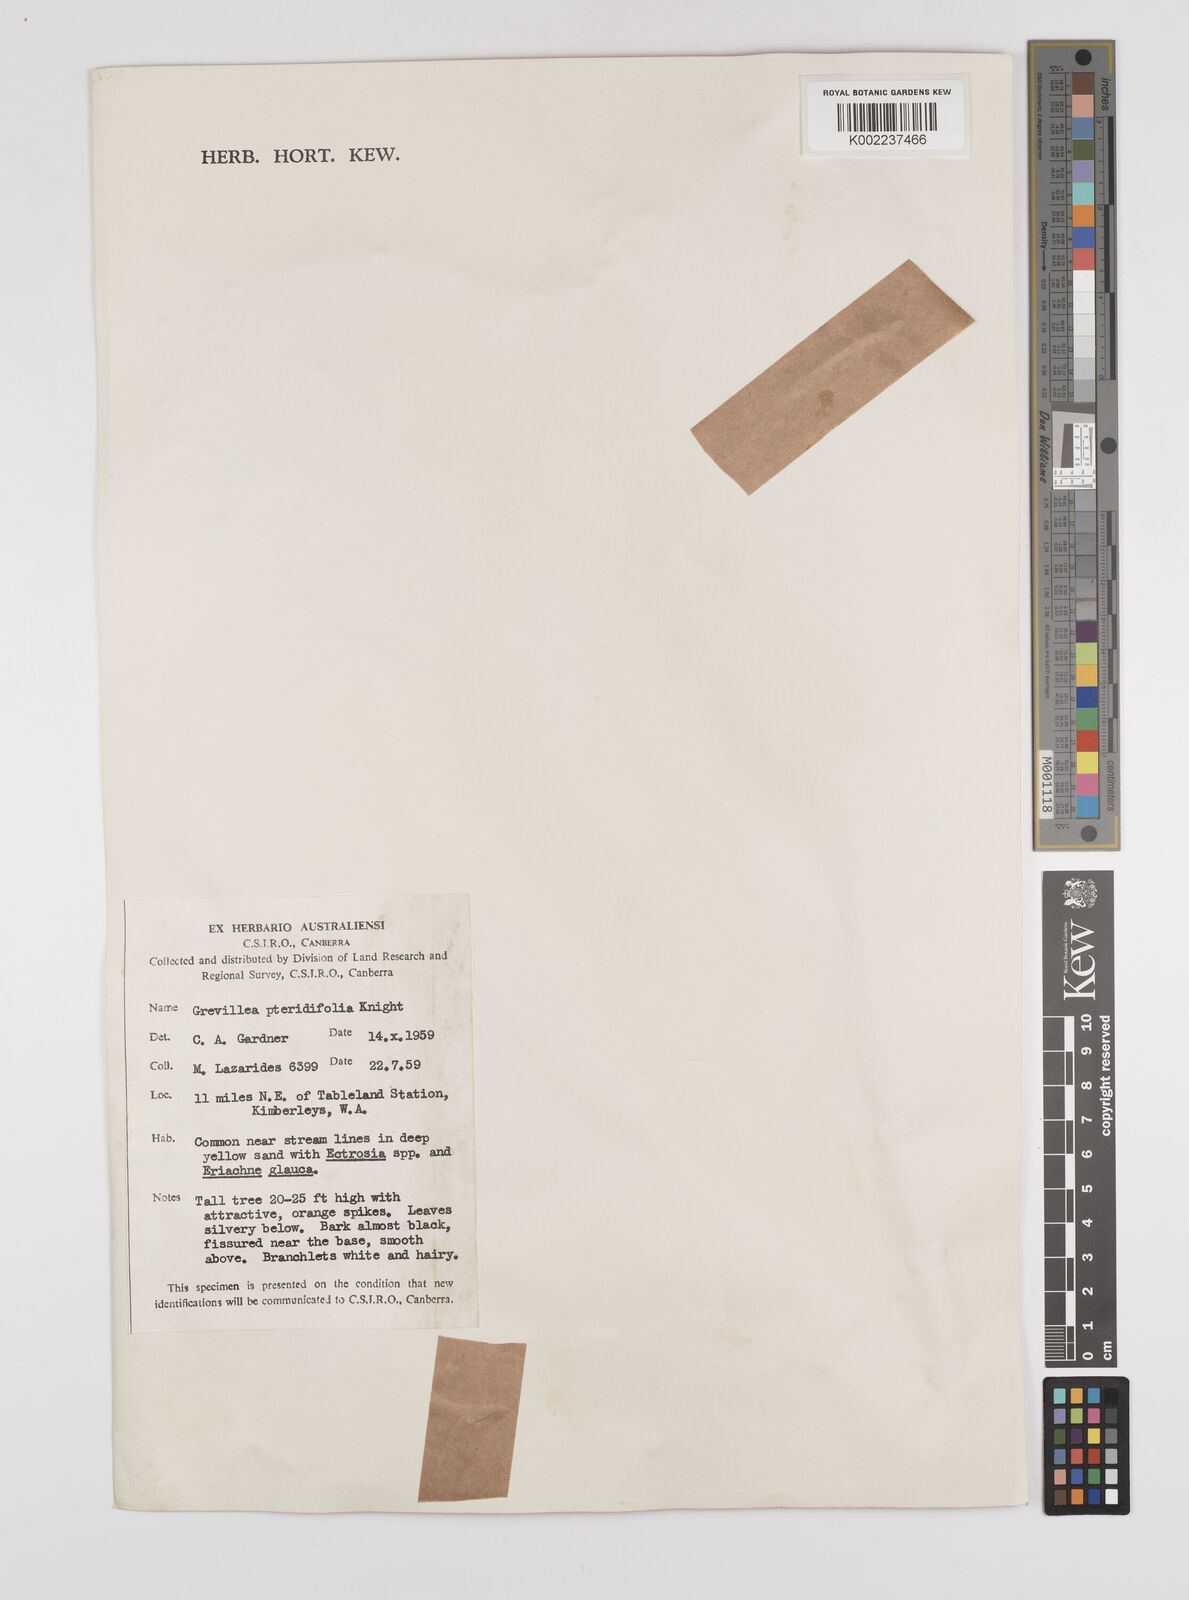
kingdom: Plantae
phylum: Tracheophyta
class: Magnoliopsida
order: Proteales
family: Proteaceae
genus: Grevillea
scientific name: Grevillea pteridifolia
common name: Golden grevillea
